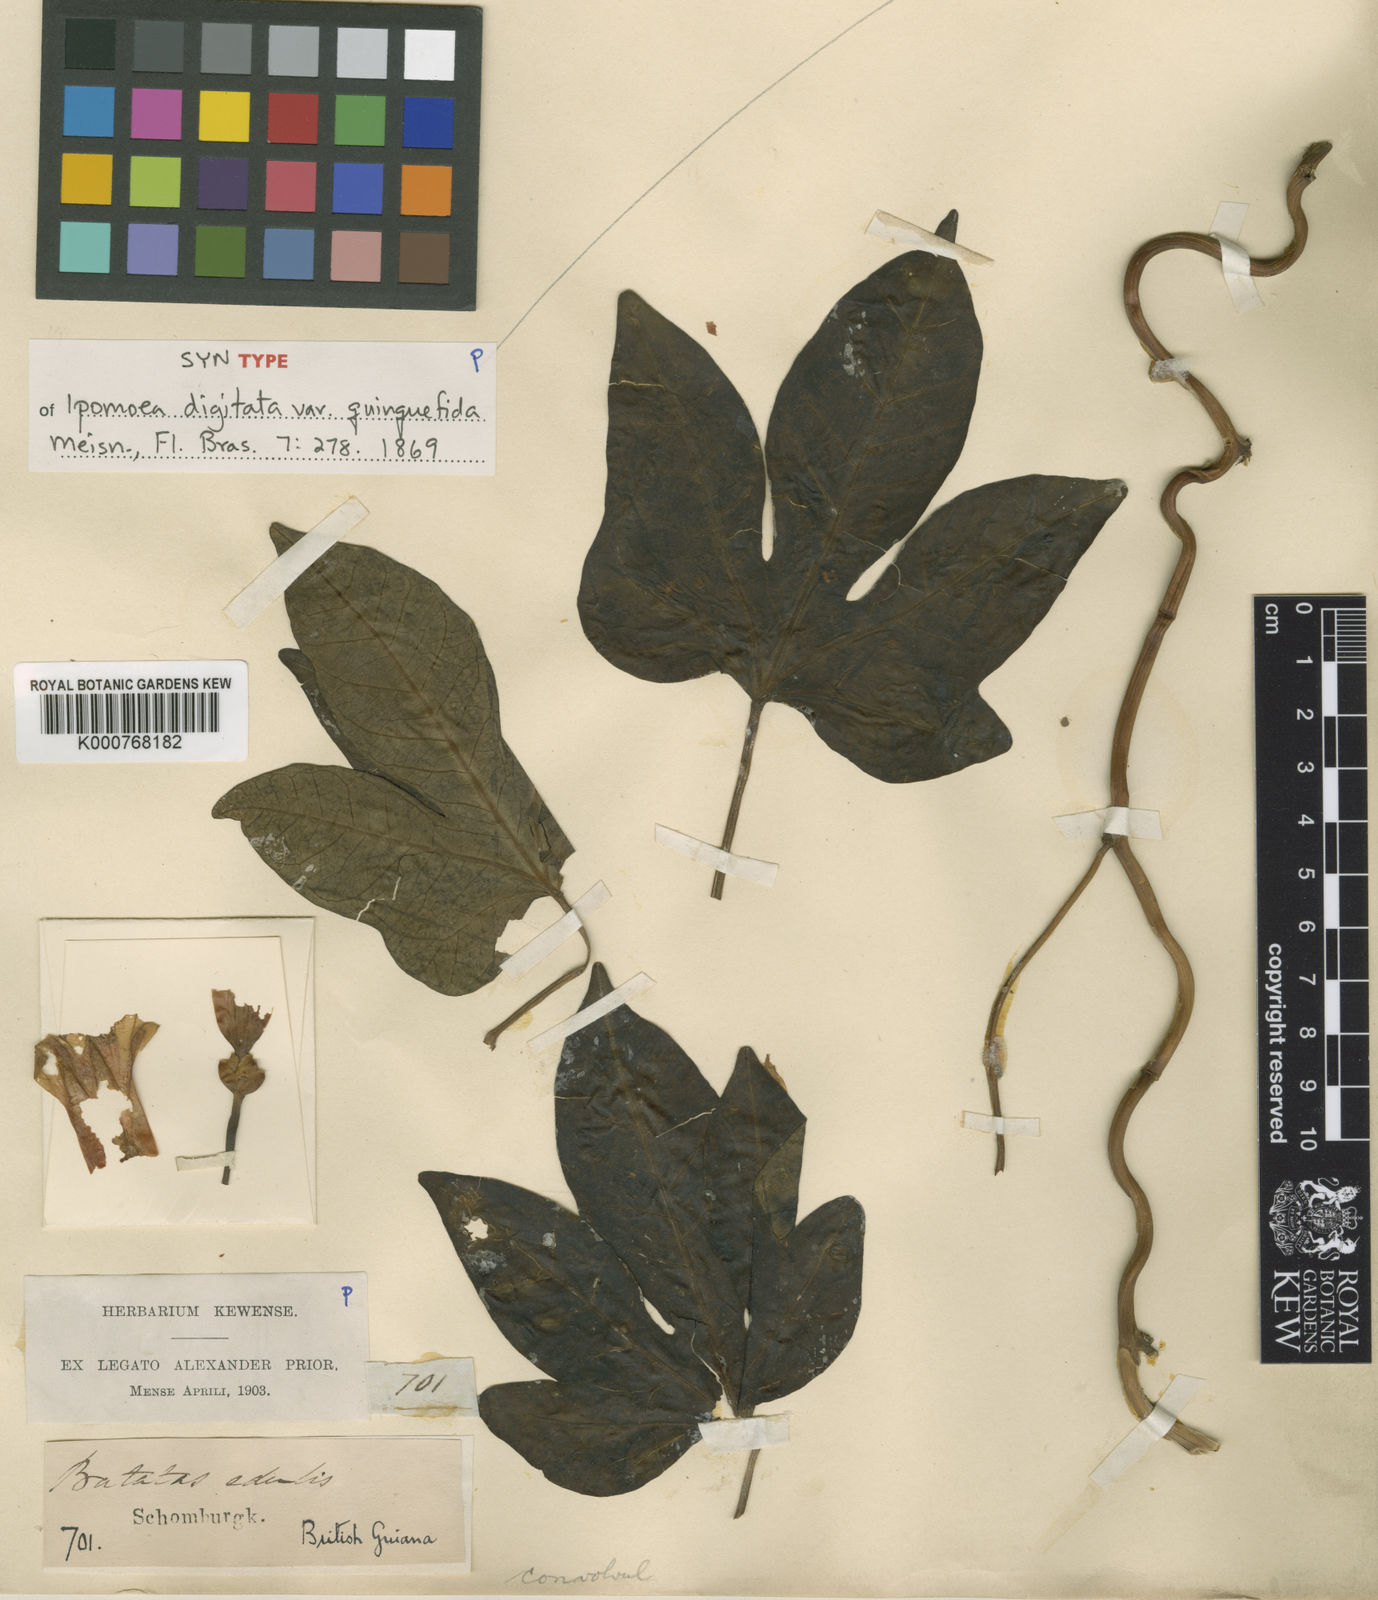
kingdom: Plantae
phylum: Tracheophyta
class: Magnoliopsida
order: Solanales
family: Convolvulaceae
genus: Ipomoea
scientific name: Ipomoea mauritiana
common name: Mauritanian convolvulus
